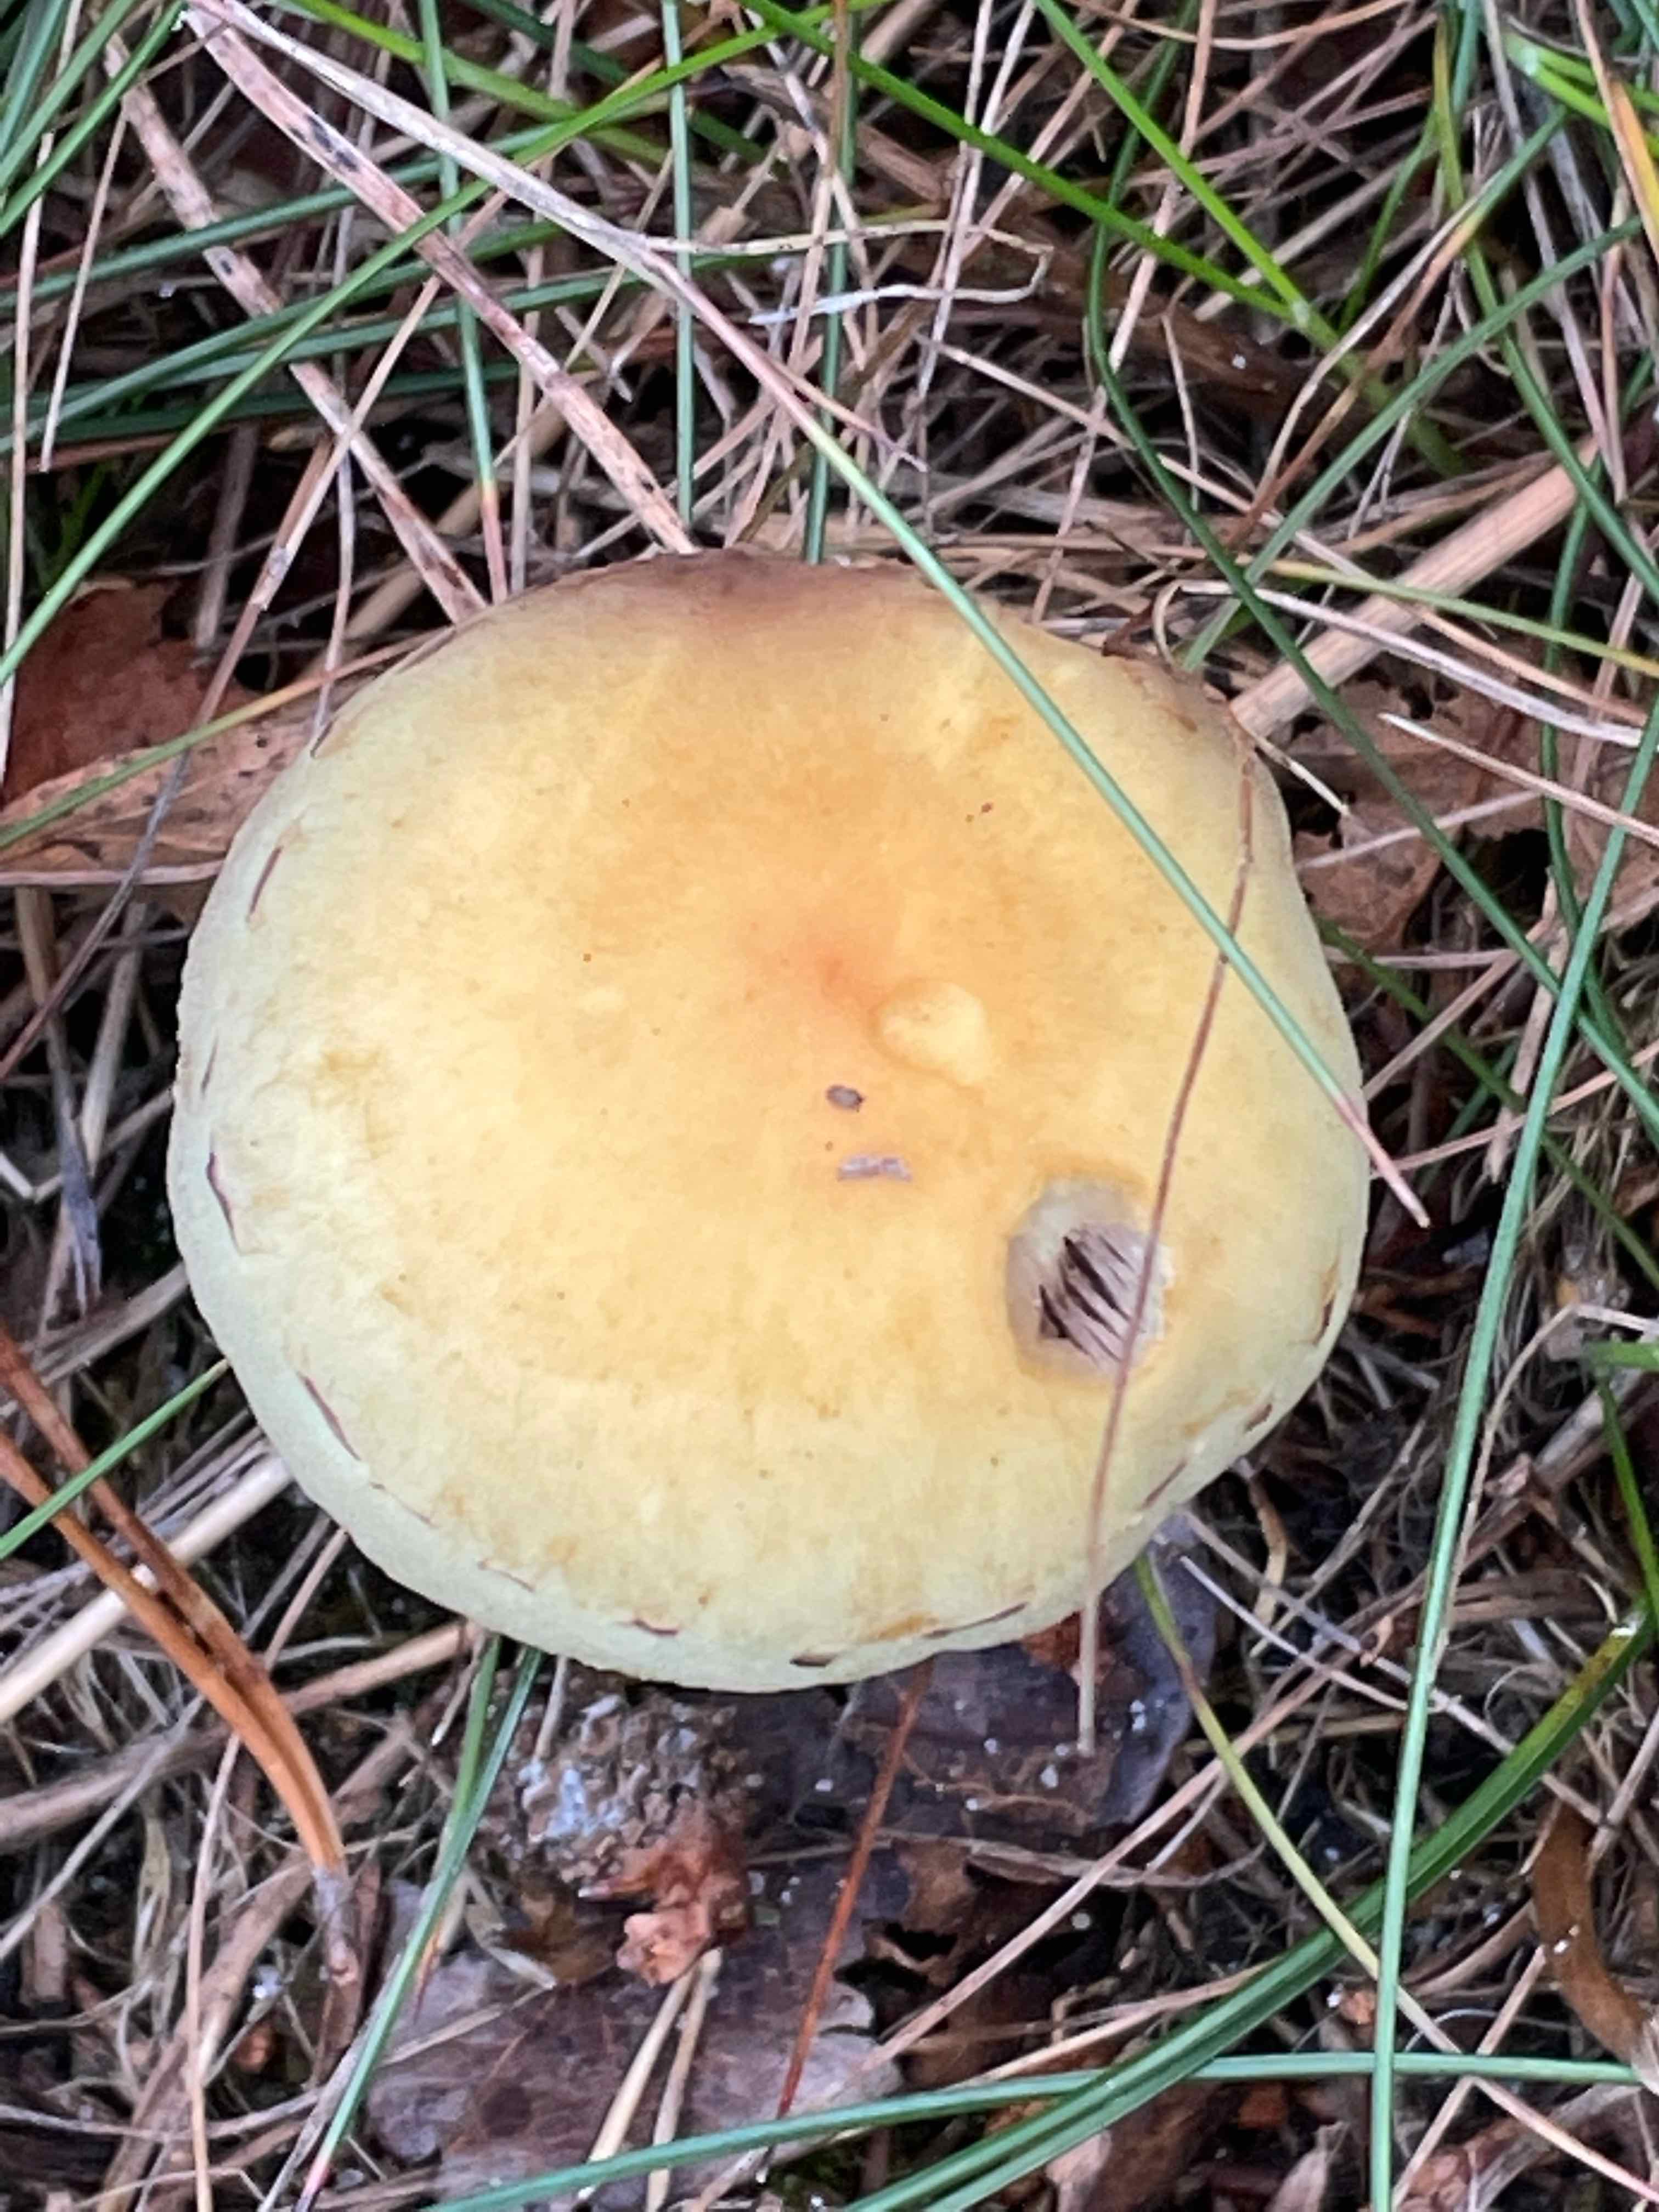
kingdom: Fungi
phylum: Basidiomycota
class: Agaricomycetes
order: Agaricales
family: Strophariaceae
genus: Hypholoma
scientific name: Hypholoma capnoides
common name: gran-svovlhat
